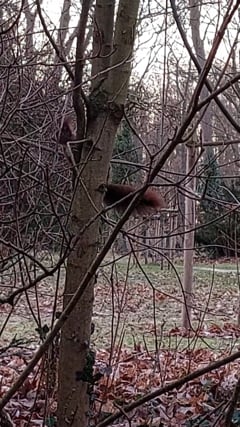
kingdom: Animalia
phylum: Chordata
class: Mammalia
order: Rodentia
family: Sciuridae
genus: Sciurus
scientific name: Sciurus vulgaris
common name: Eurasian red squirrel
